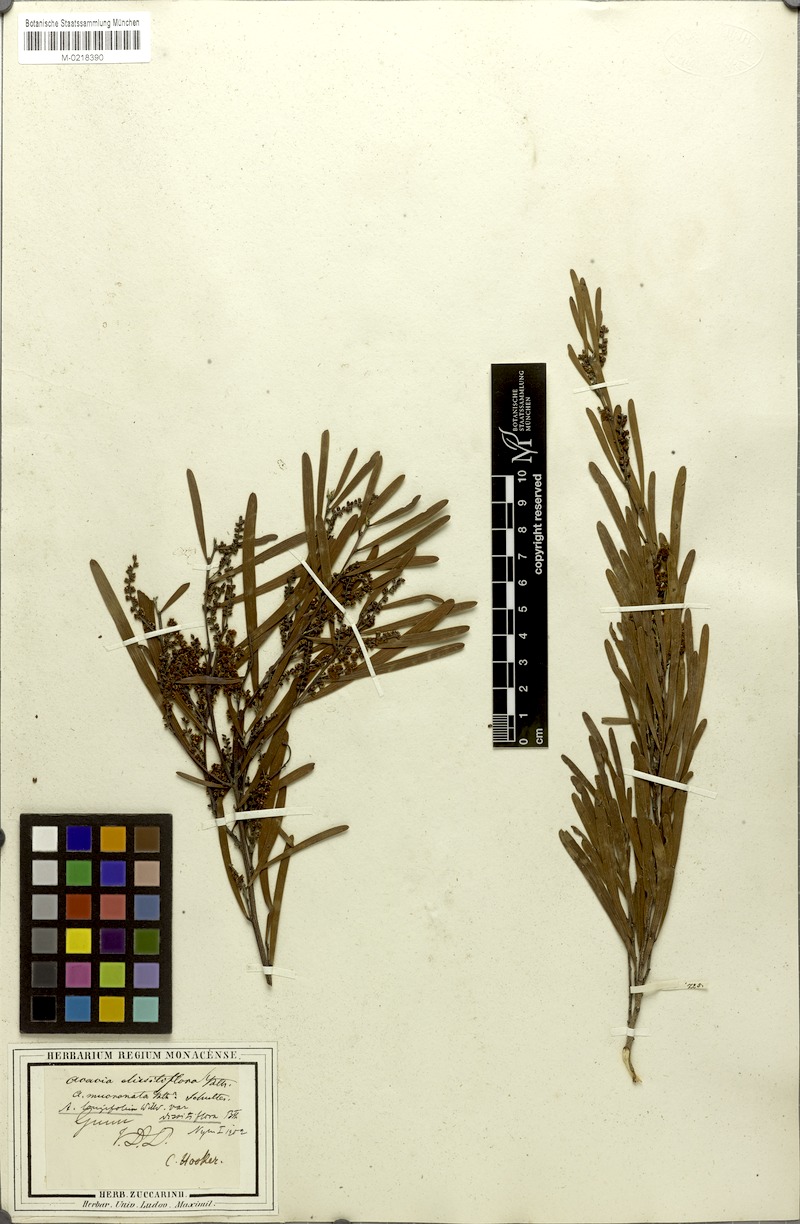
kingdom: Plantae
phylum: Tracheophyta
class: Magnoliopsida
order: Fabales
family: Fabaceae
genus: Acacia
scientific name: Acacia mucronata
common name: Variable sallow wattle
